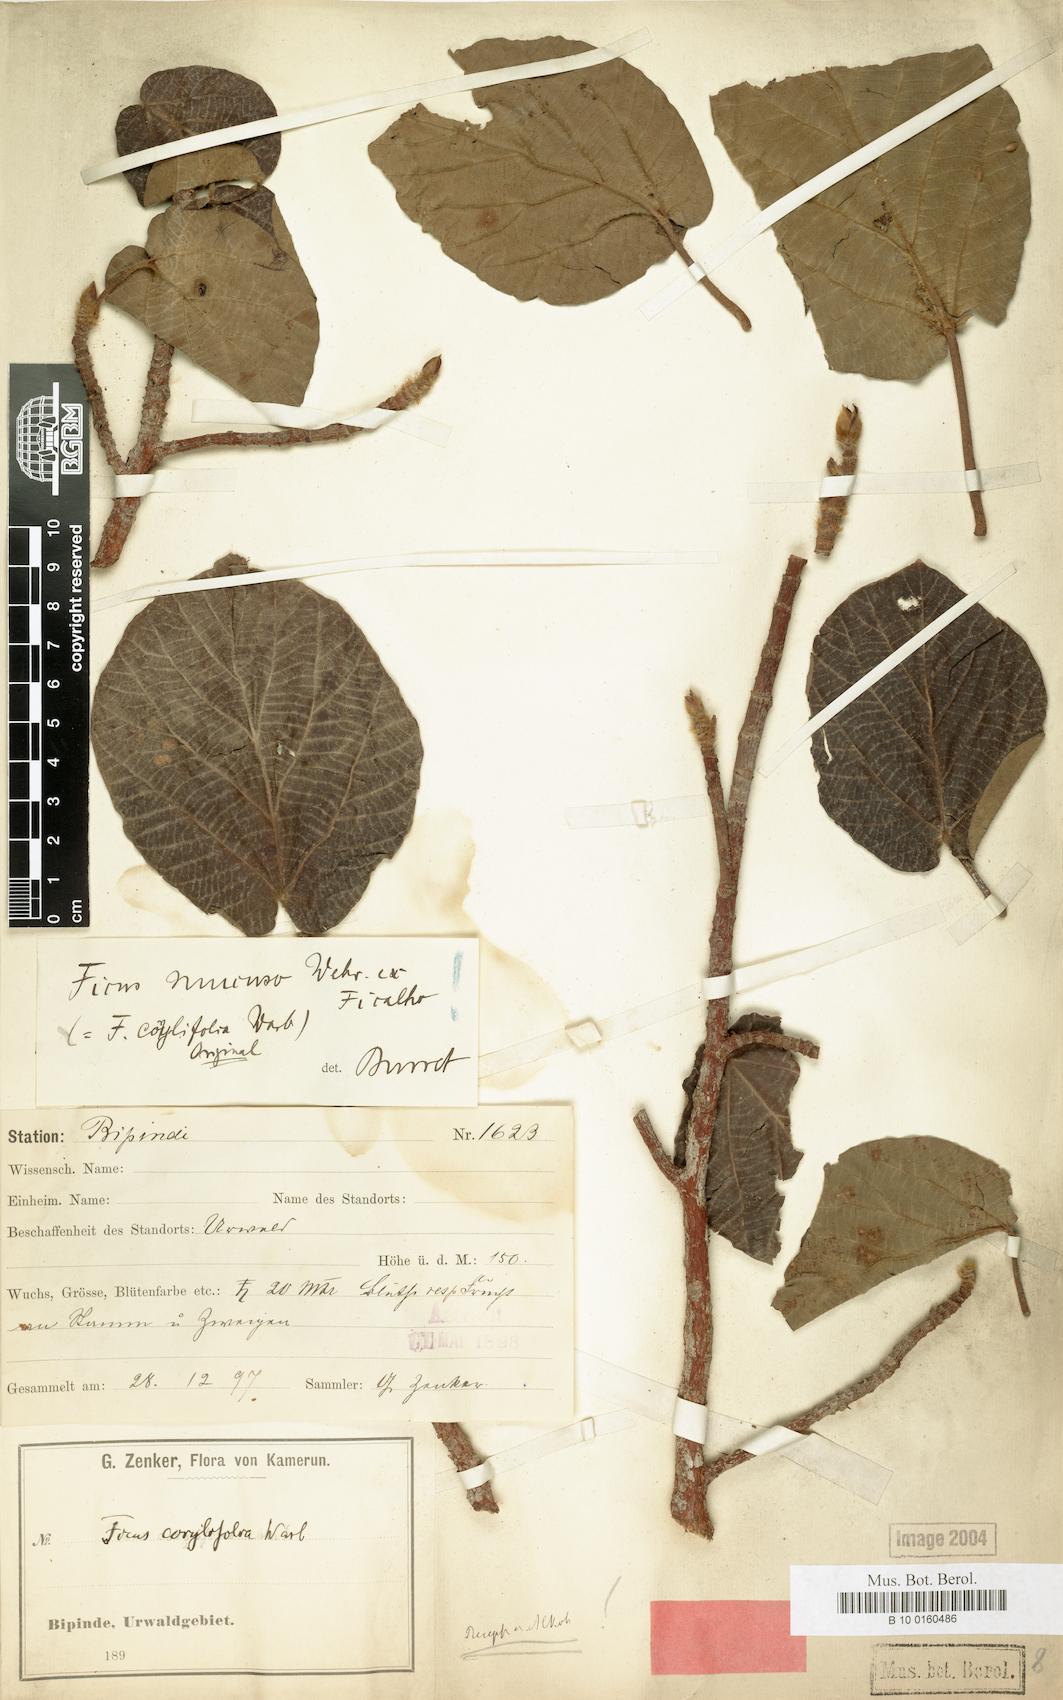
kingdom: Plantae
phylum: Tracheophyta
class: Magnoliopsida
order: Rosales
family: Moraceae
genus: Ficus
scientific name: Ficus mucuso
